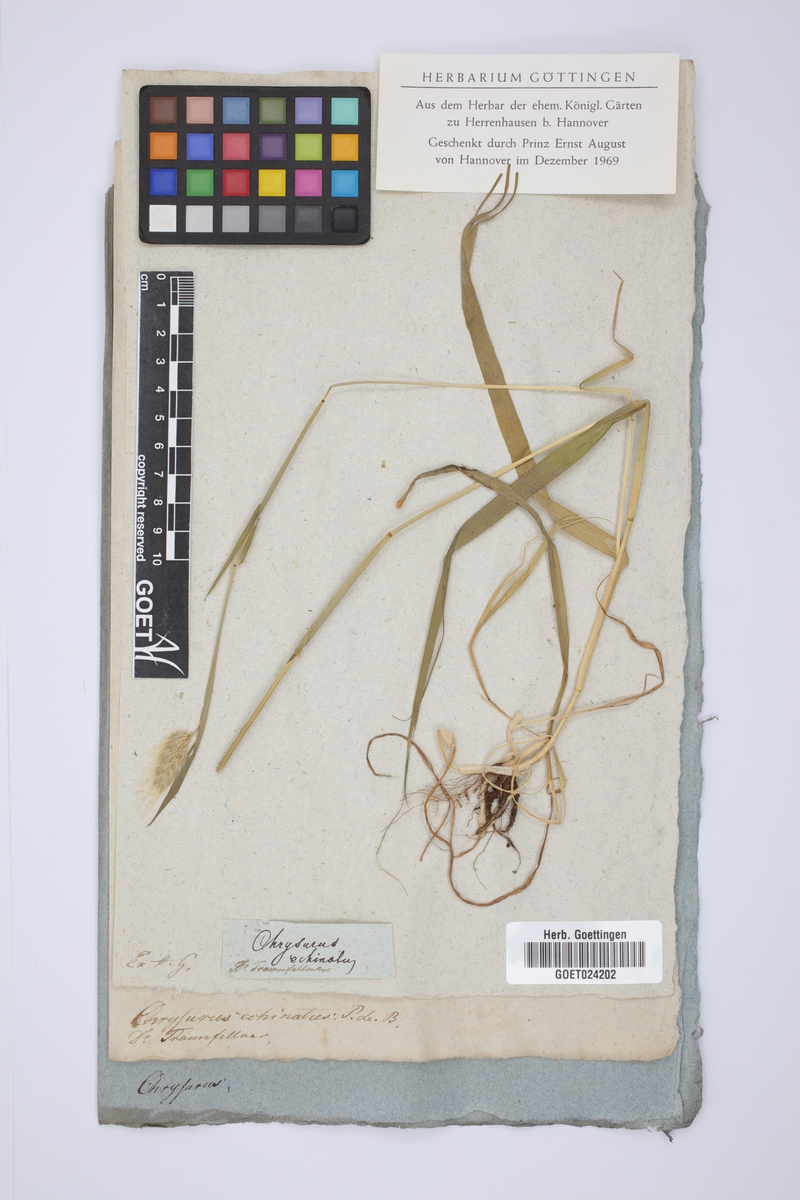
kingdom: Plantae
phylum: Tracheophyta
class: Liliopsida
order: Poales
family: Poaceae
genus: Cynosurus
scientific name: Cynosurus echinatus
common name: Rough dog's-tail
